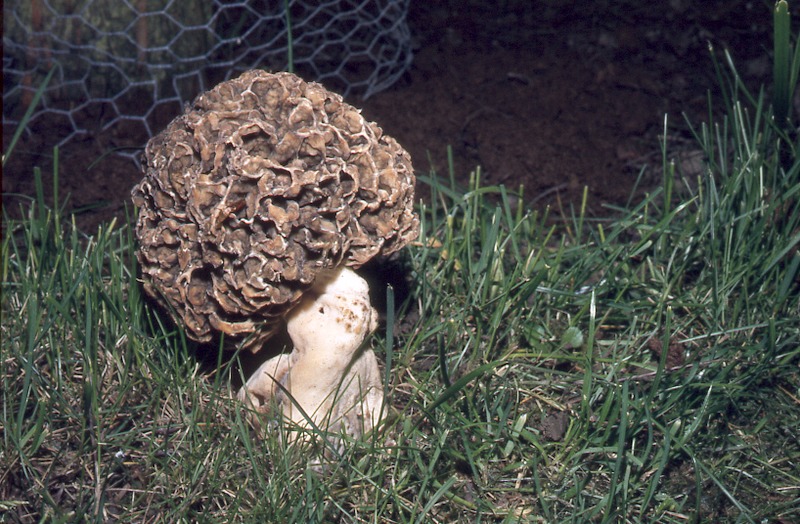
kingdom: Fungi
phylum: Ascomycota
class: Pezizomycetes
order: Pezizales
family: Morchellaceae
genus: Morchella
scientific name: Morchella esculenta
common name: Morel
